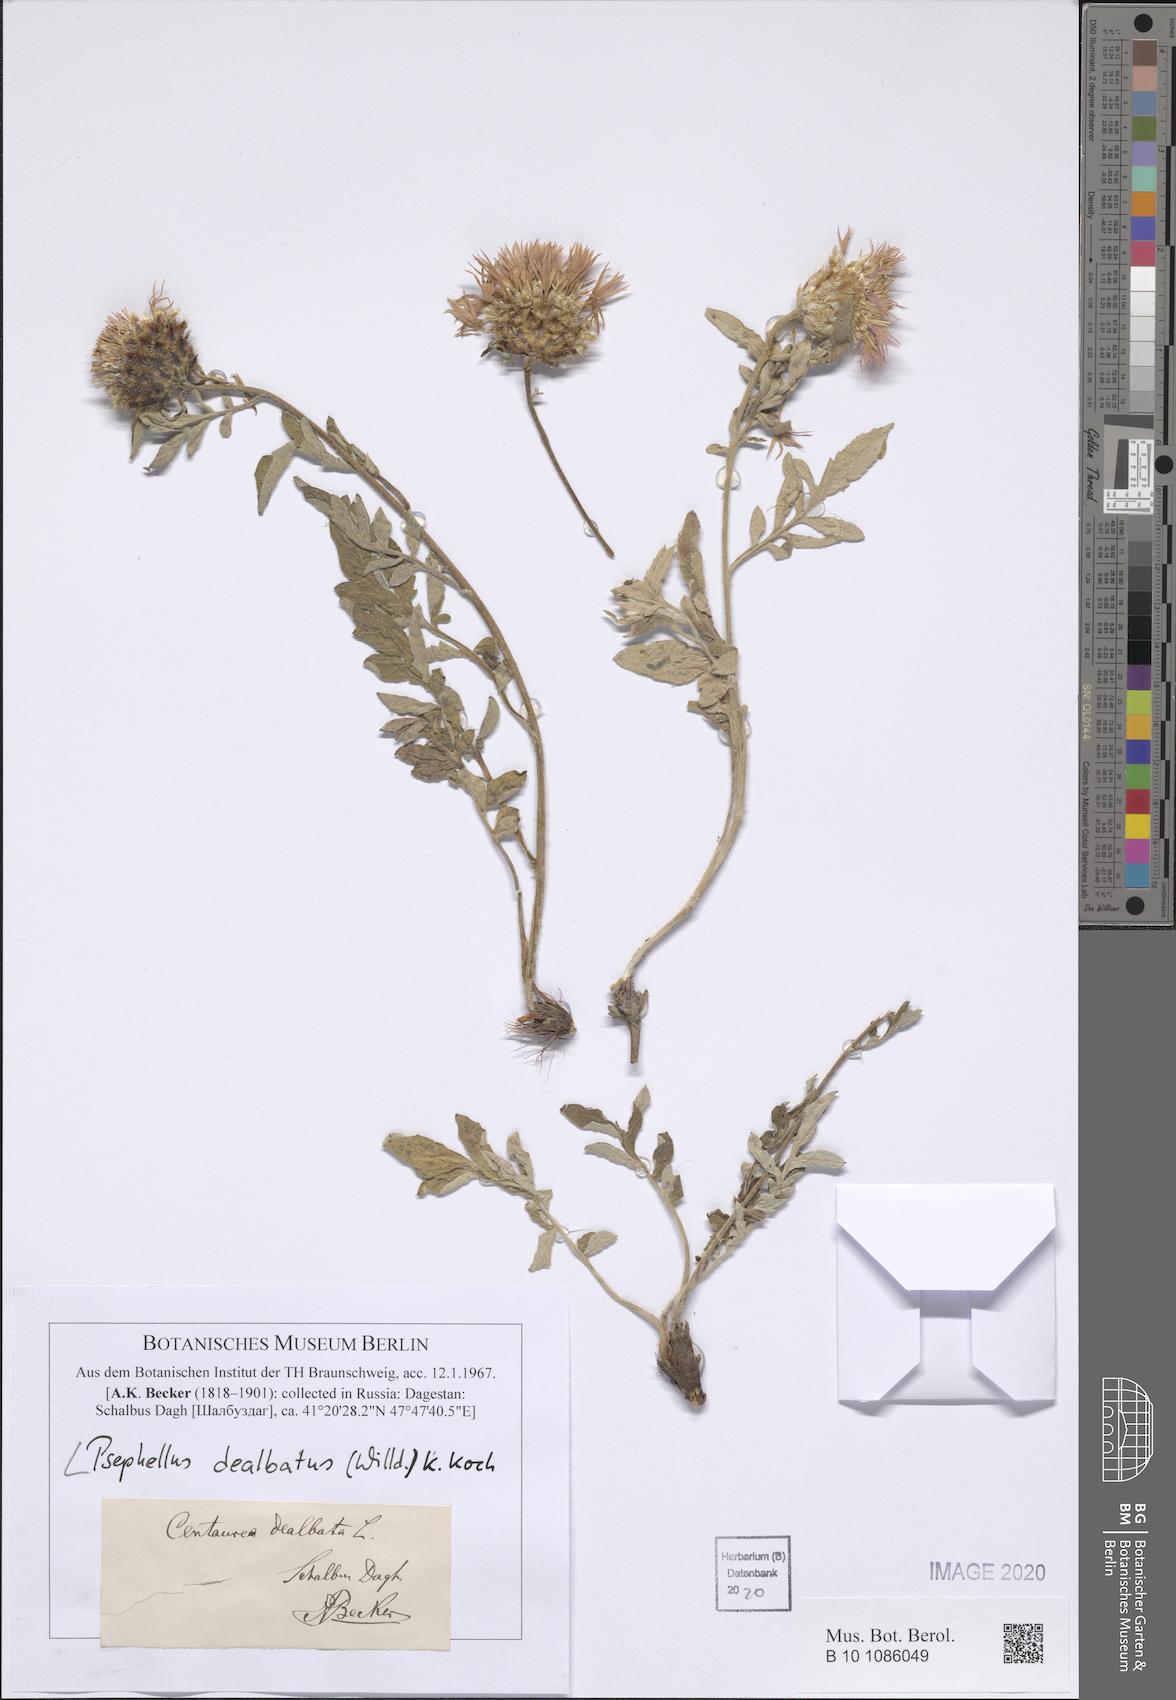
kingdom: Plantae
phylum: Tracheophyta
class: Magnoliopsida
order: Asterales
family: Asteraceae
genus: Psephellus
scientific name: Psephellus dealbatus
